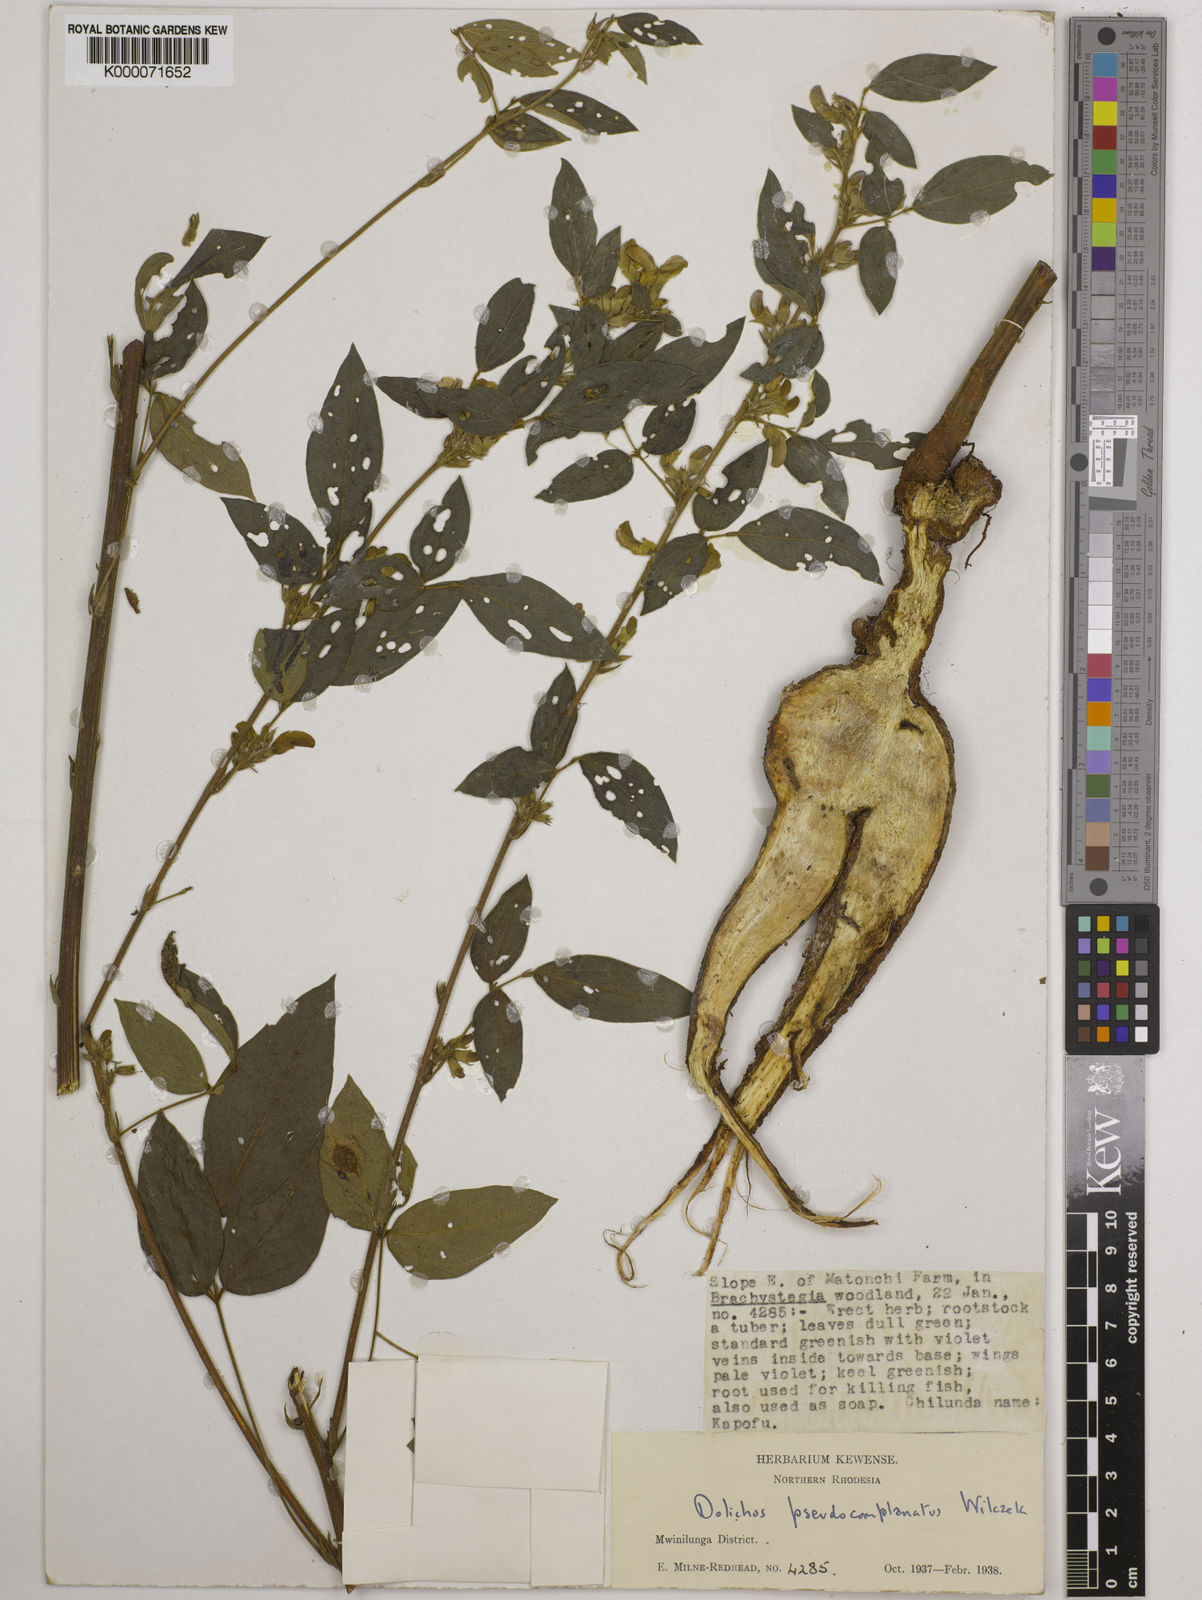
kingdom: Plantae
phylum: Tracheophyta
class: Magnoliopsida
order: Fabales
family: Fabaceae
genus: Dolichos
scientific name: Dolichos
